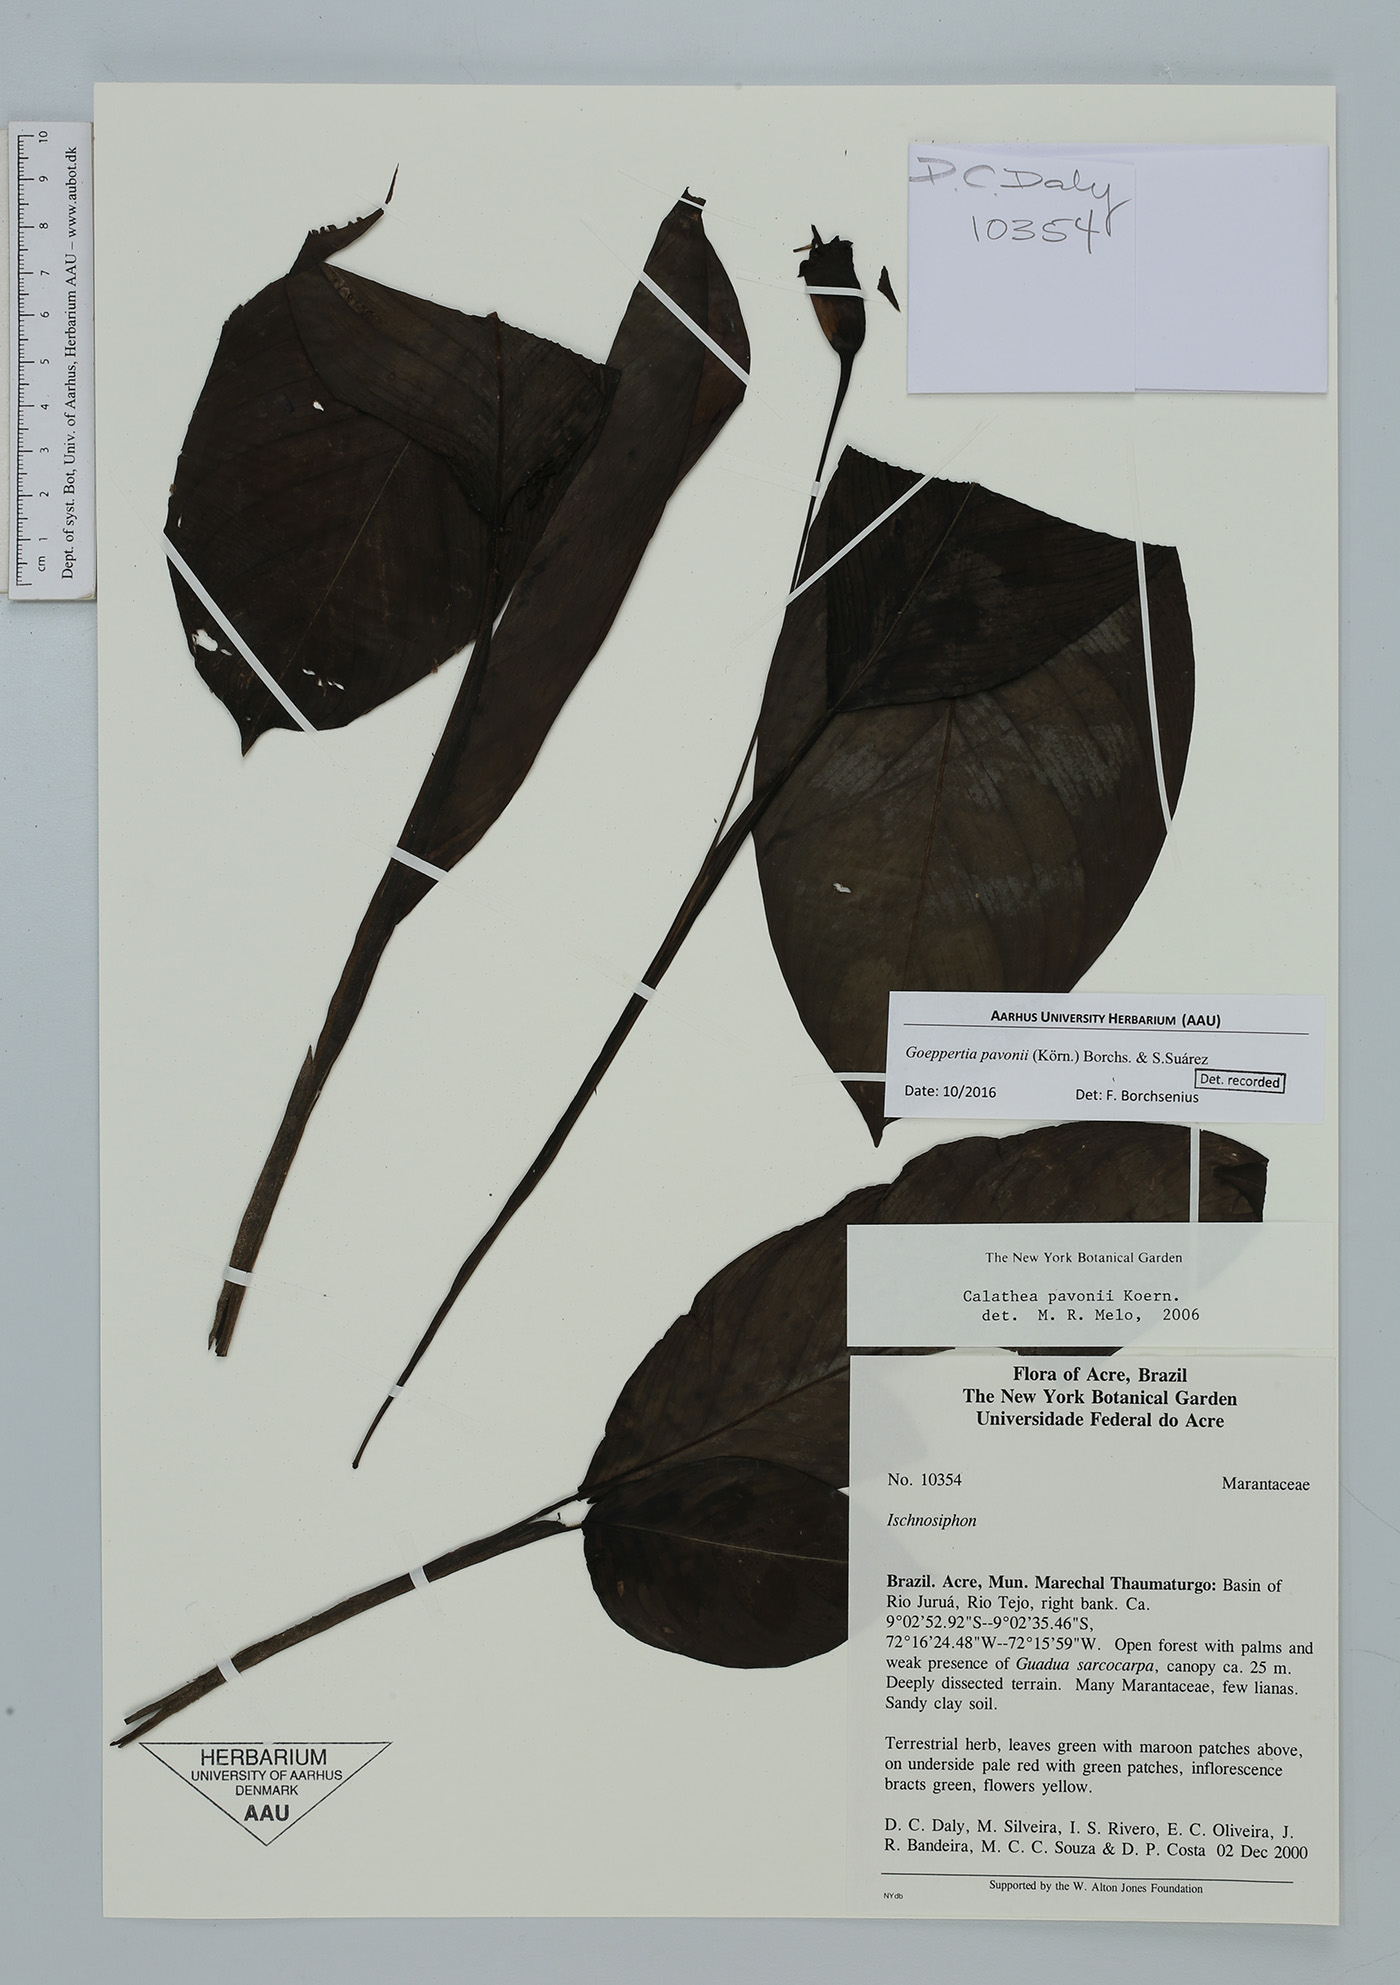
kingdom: Plantae
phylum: Tracheophyta
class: Liliopsida
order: Zingiberales
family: Marantaceae
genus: Goeppertia
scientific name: Goeppertia pavonii
